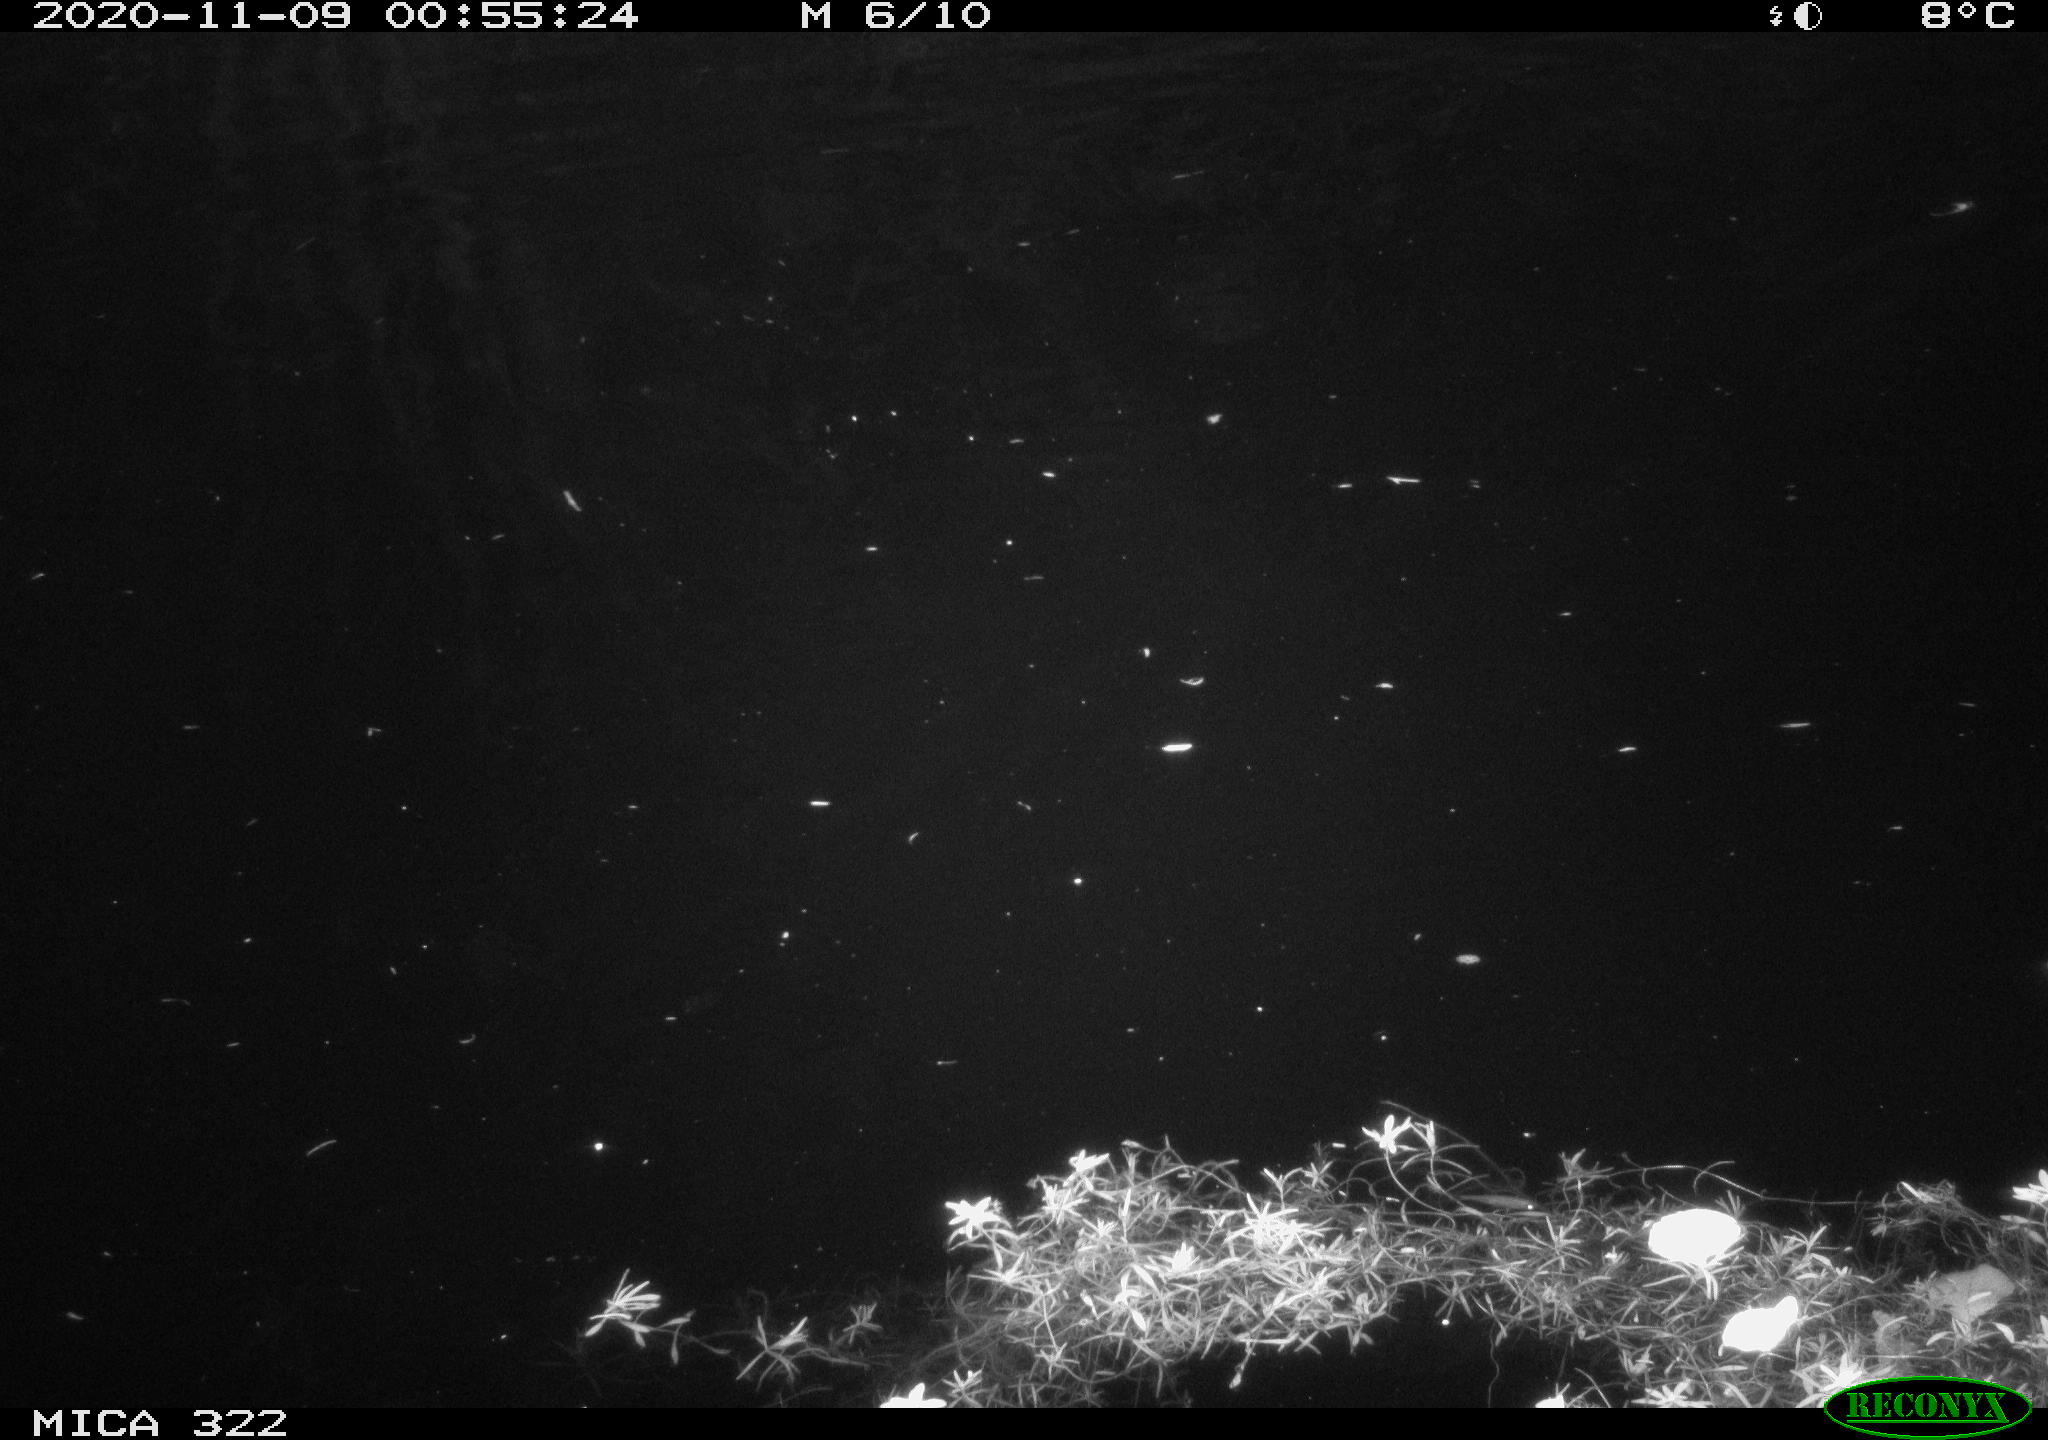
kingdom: Animalia
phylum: Chordata
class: Aves
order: Anseriformes
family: Anatidae
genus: Anas
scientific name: Anas platyrhynchos
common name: Mallard
